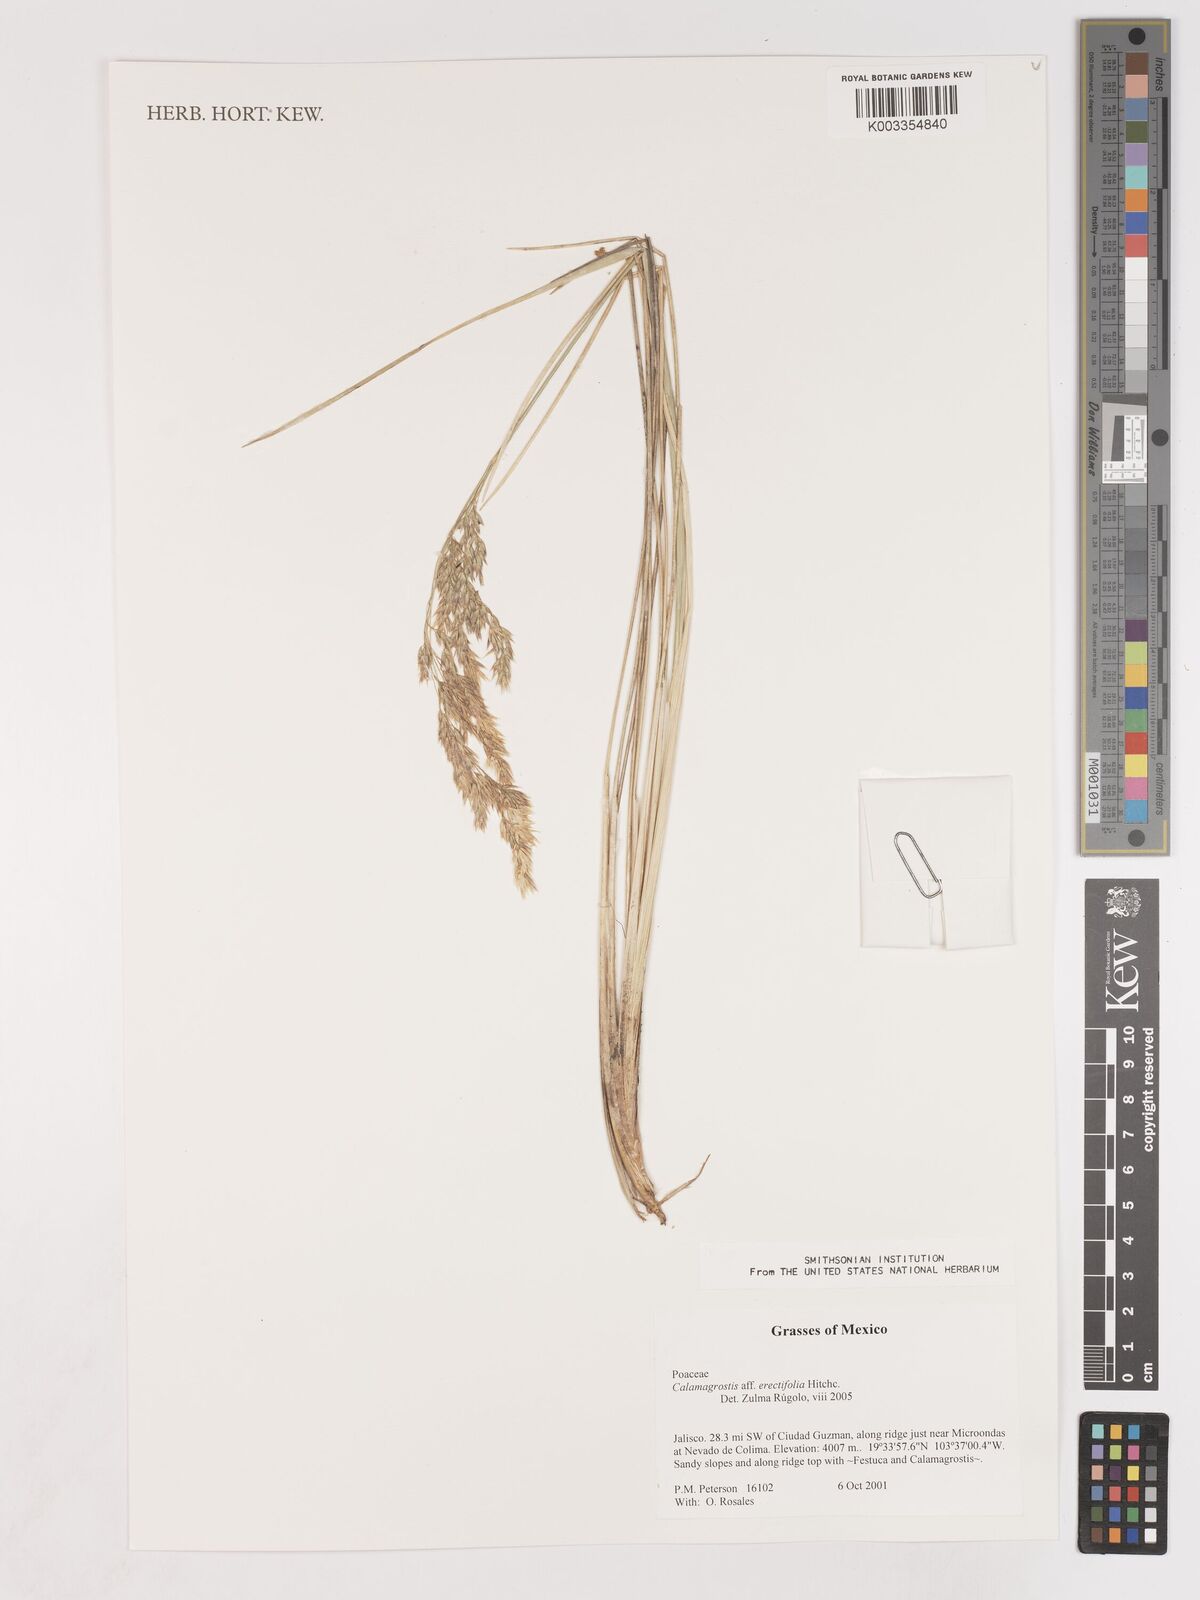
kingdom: Plantae
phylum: Tracheophyta
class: Liliopsida
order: Poales
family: Poaceae
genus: Calamagrostis
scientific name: Calamagrostis
